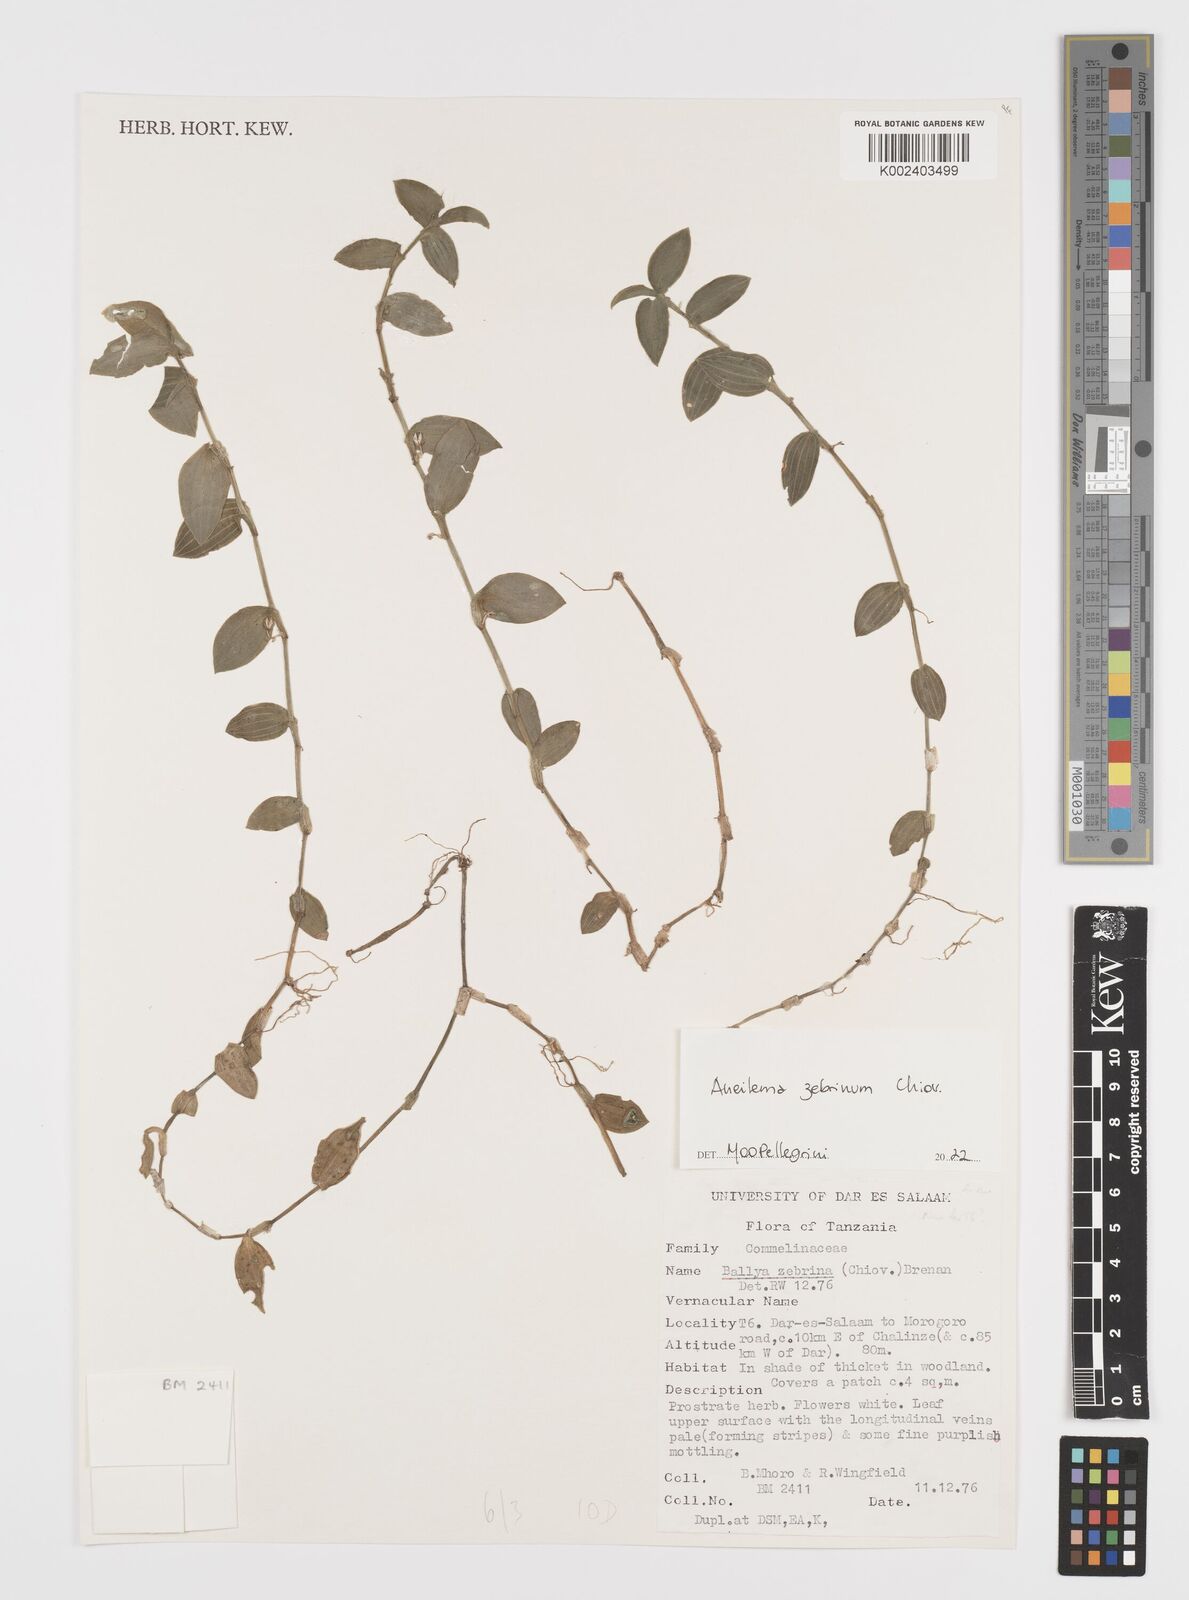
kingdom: Plantae
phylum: Tracheophyta
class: Liliopsida
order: Commelinales
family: Commelinaceae
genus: Aneilema
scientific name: Aneilema zebrinum
